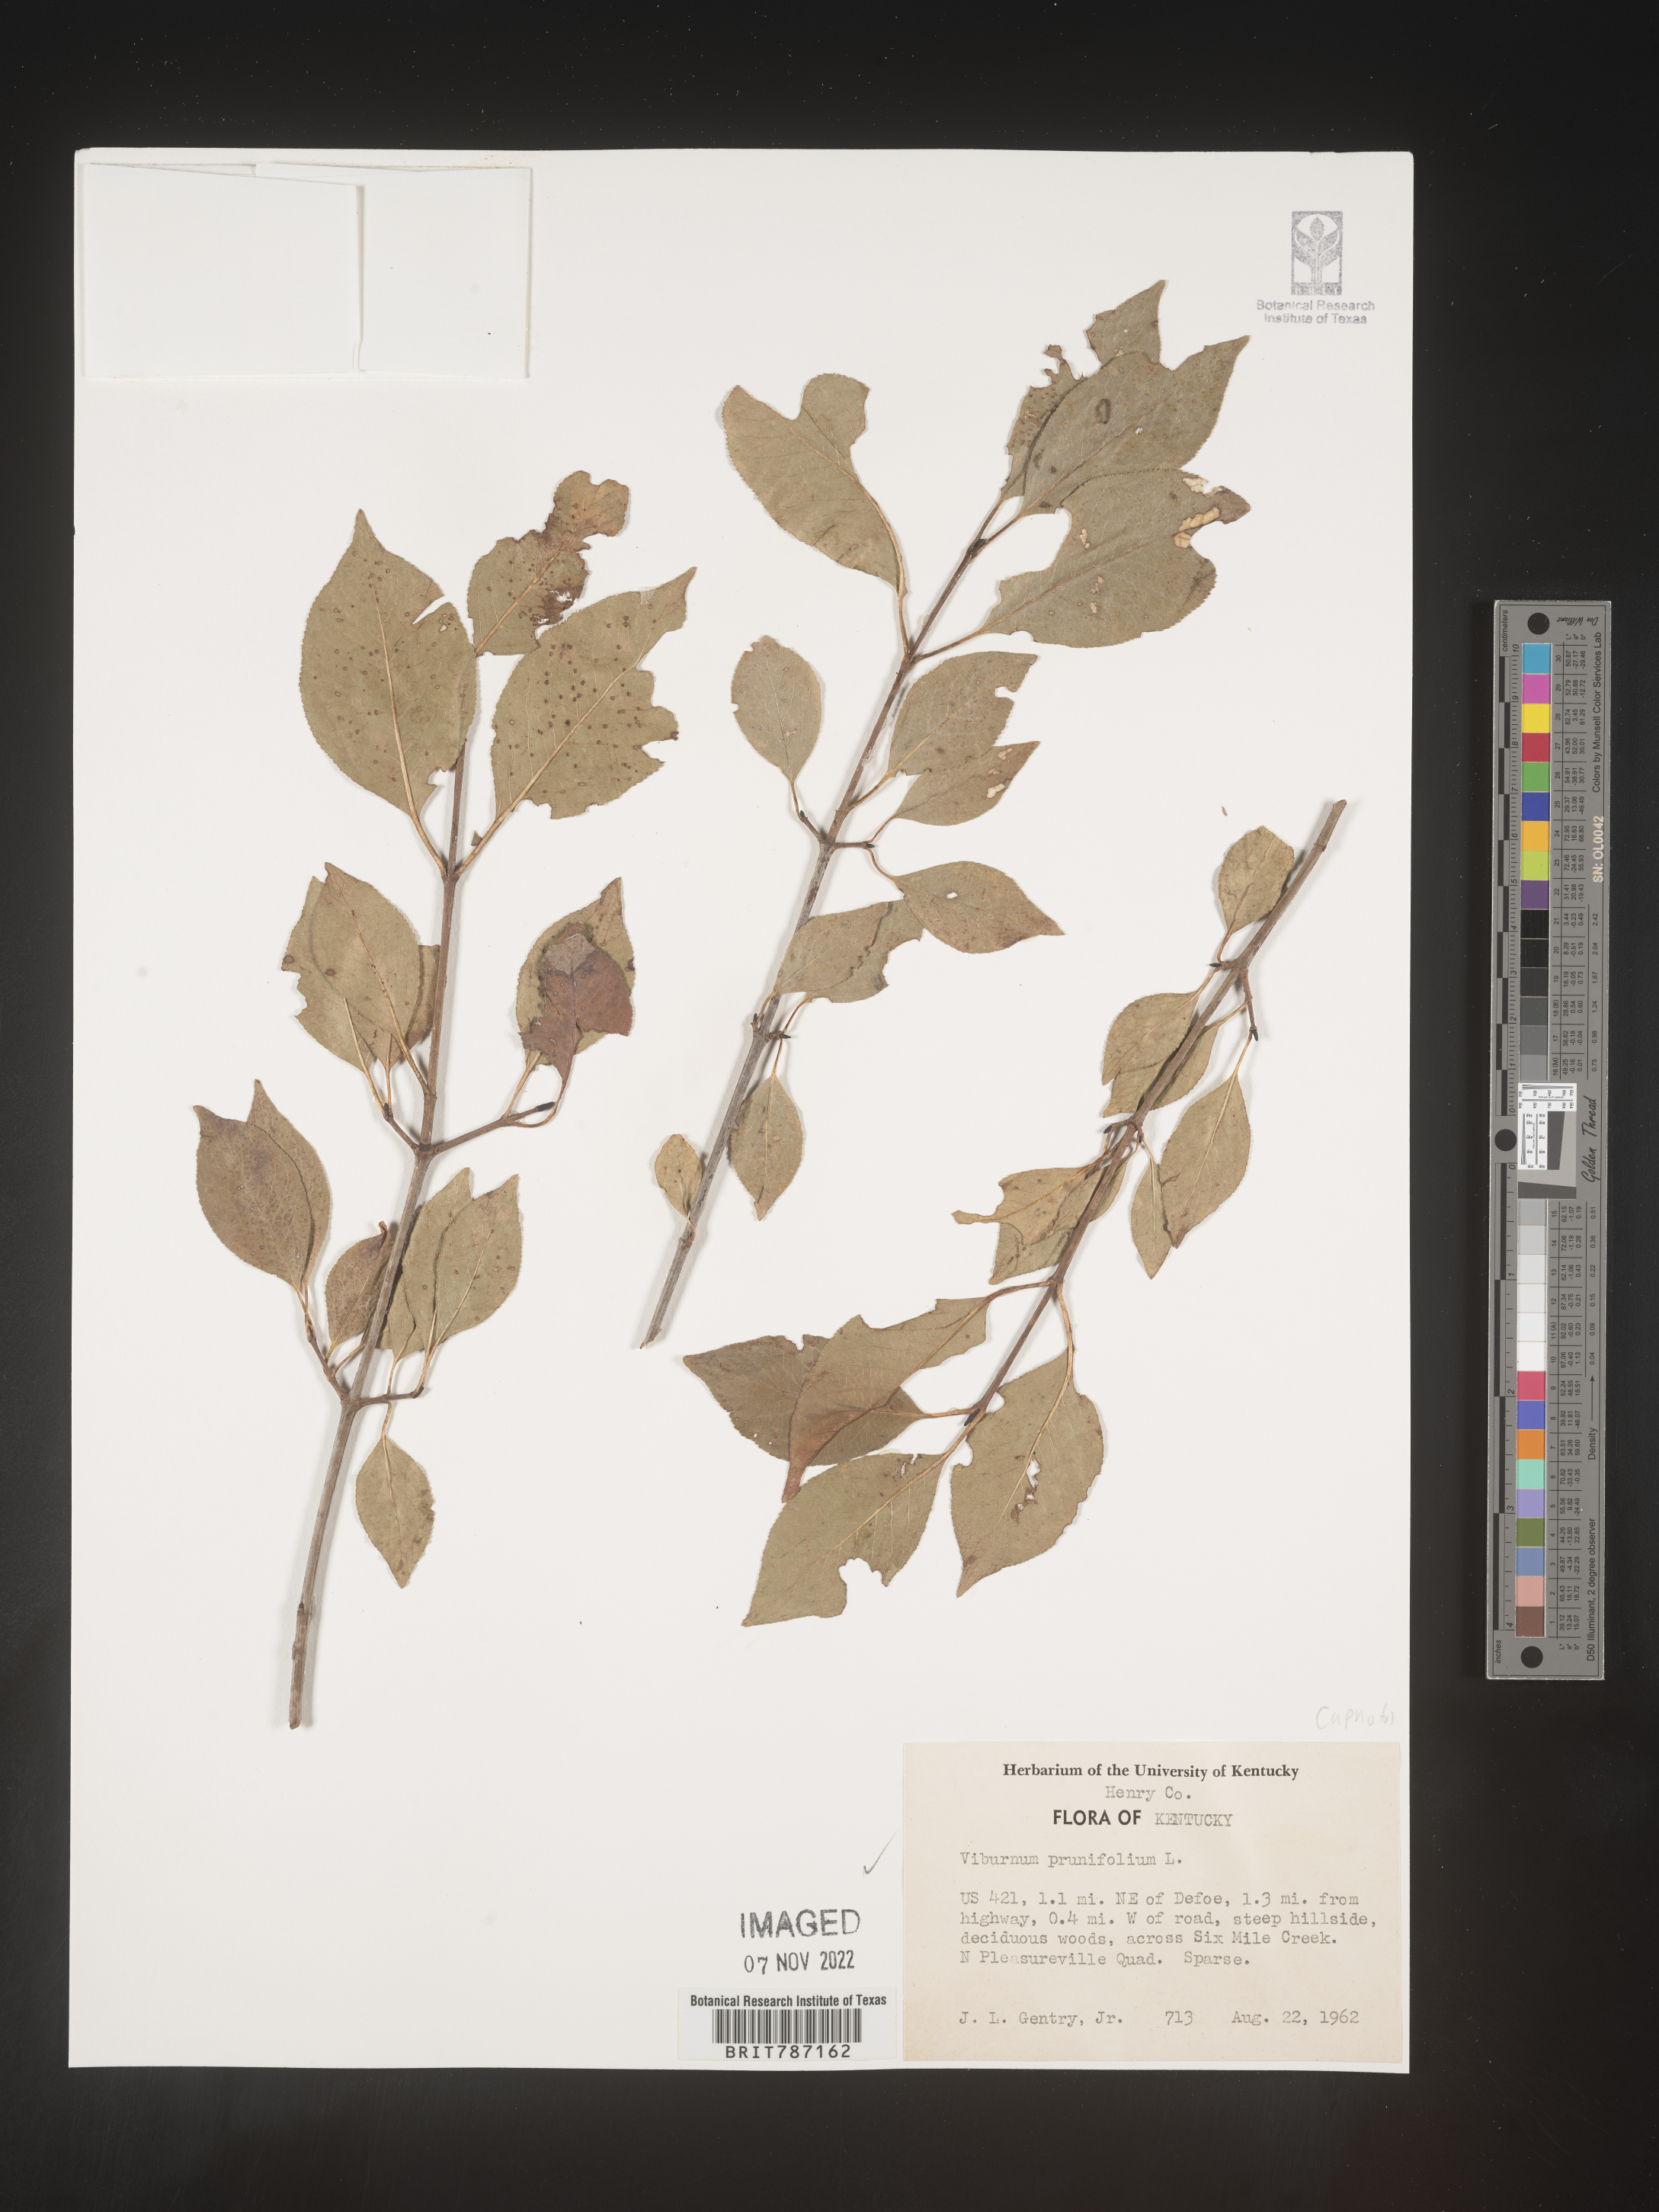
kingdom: Plantae
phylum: Tracheophyta
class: Magnoliopsida
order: Dipsacales
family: Viburnaceae
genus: Viburnum
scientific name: Viburnum prunifolium
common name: Black haw
